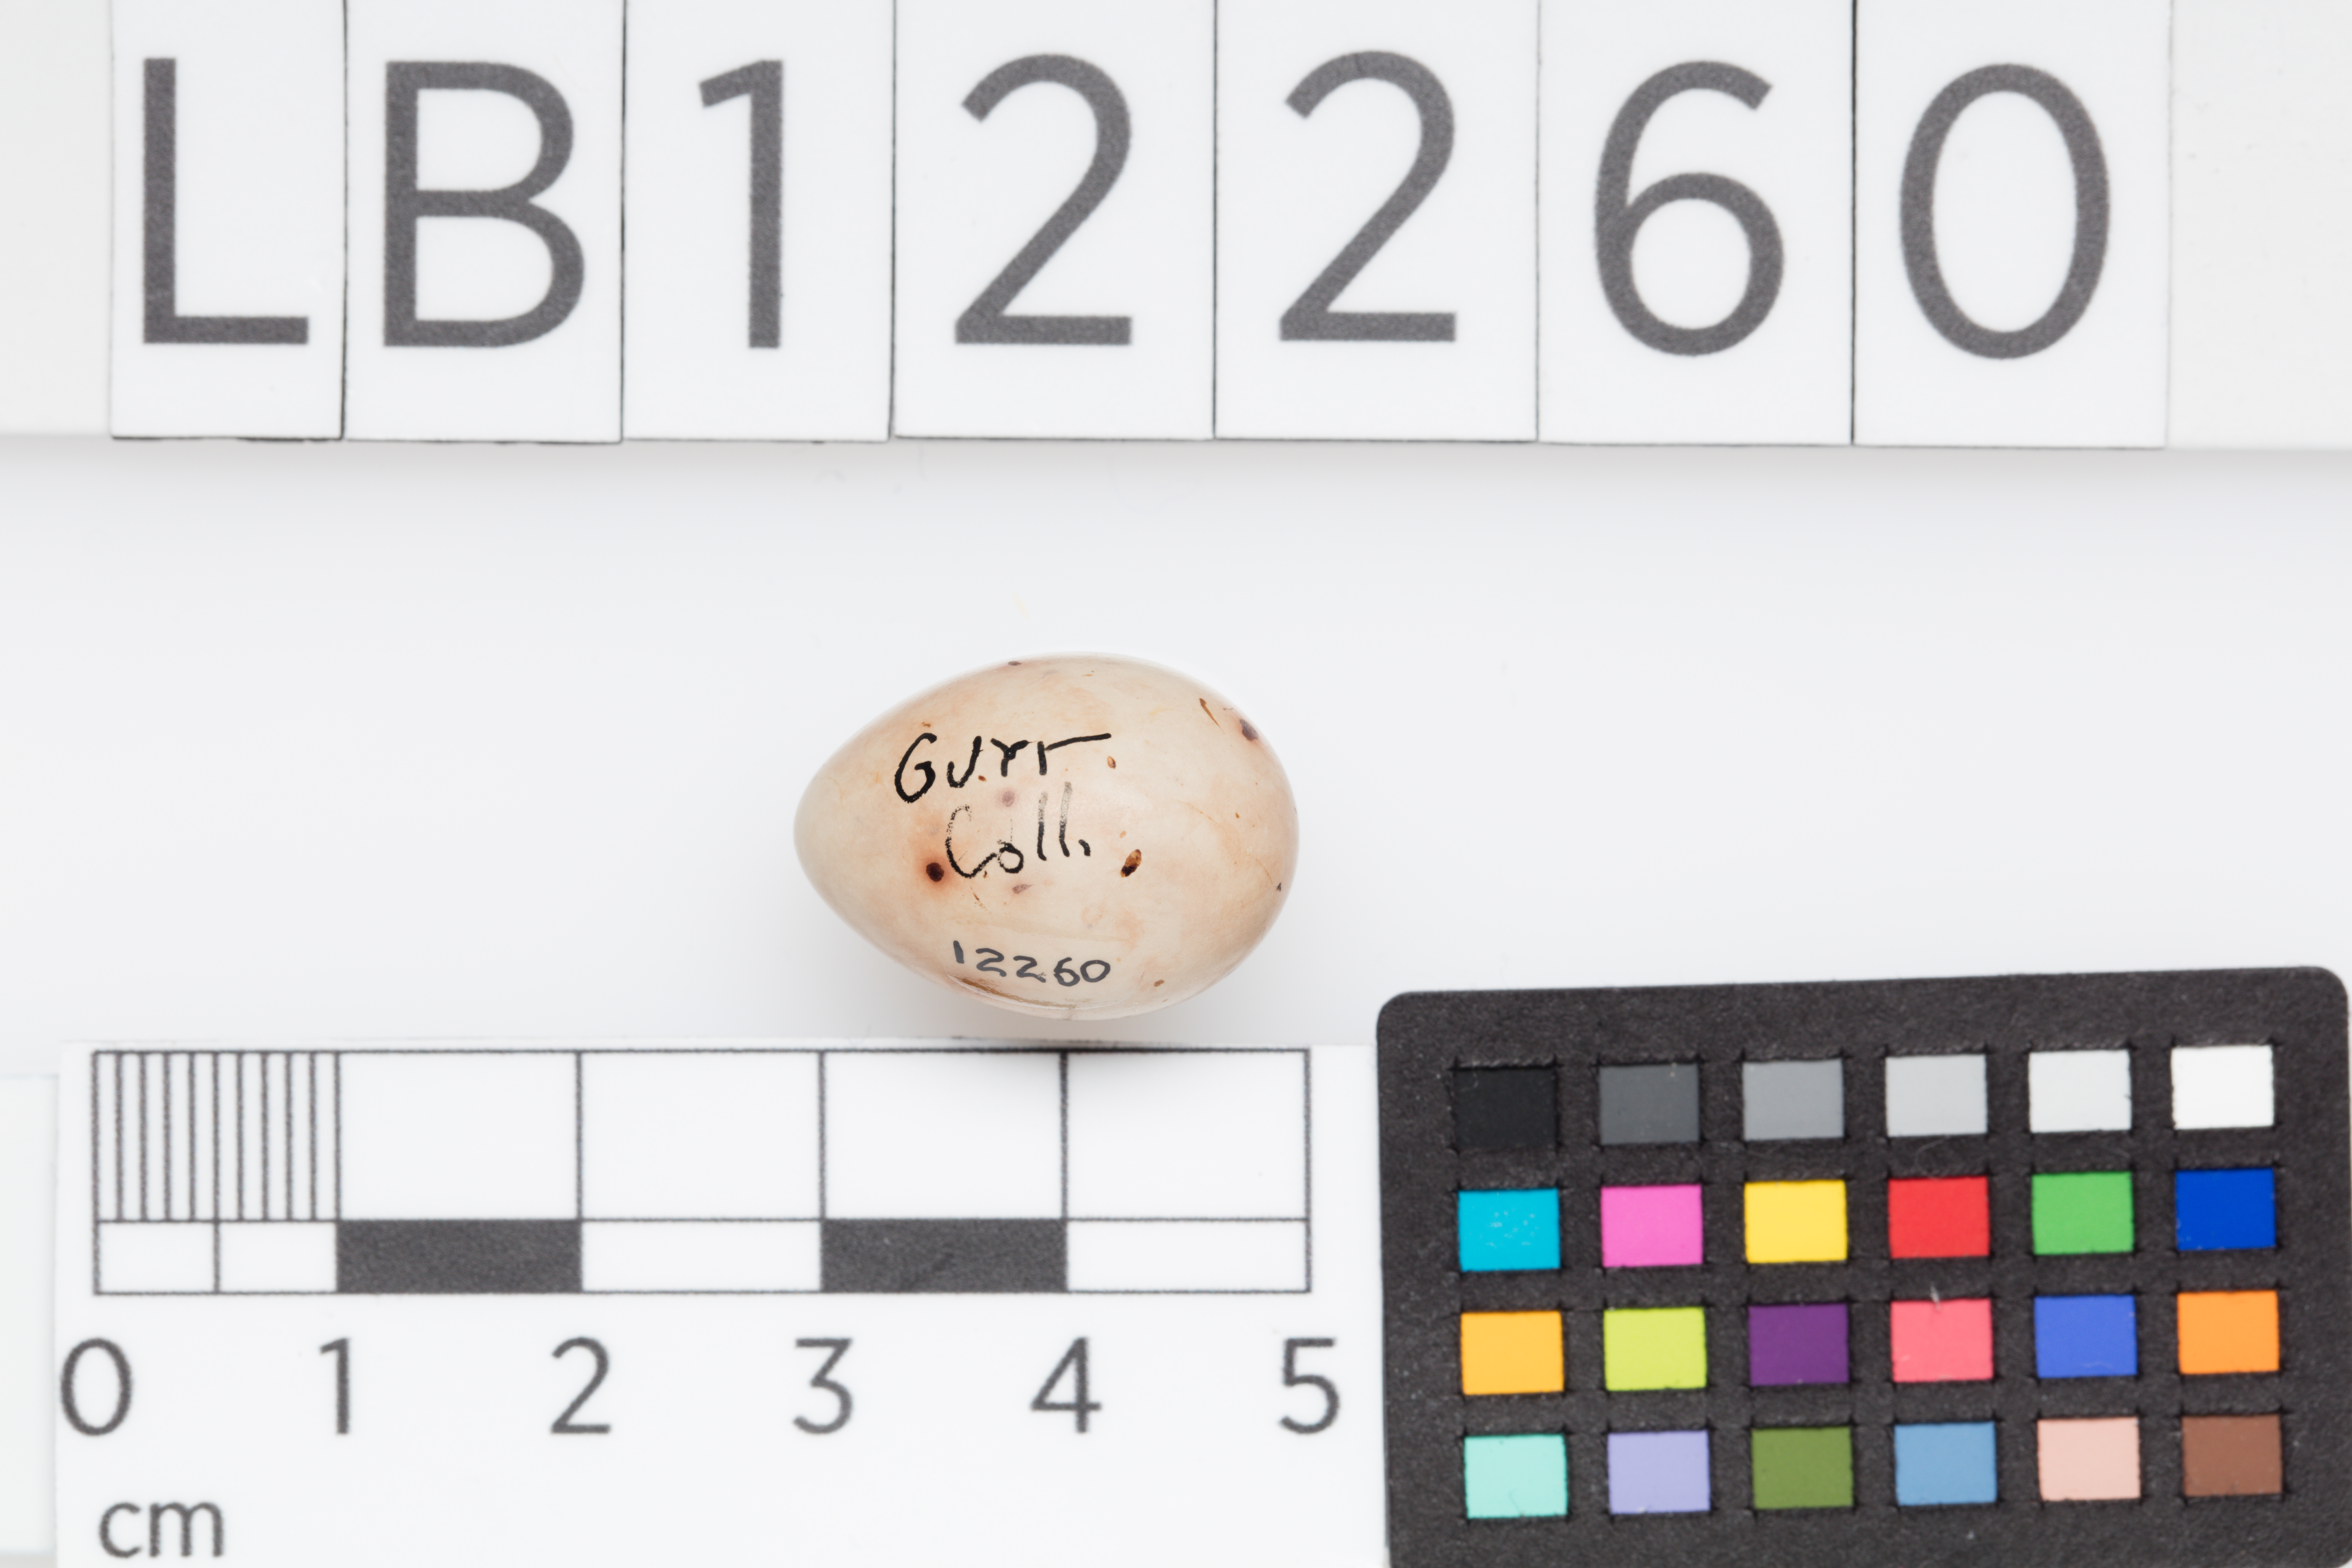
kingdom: Animalia
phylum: Chordata
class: Aves
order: Passeriformes
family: Fringillidae
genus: Fringilla
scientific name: Fringilla coelebs
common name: Common chaffinch
